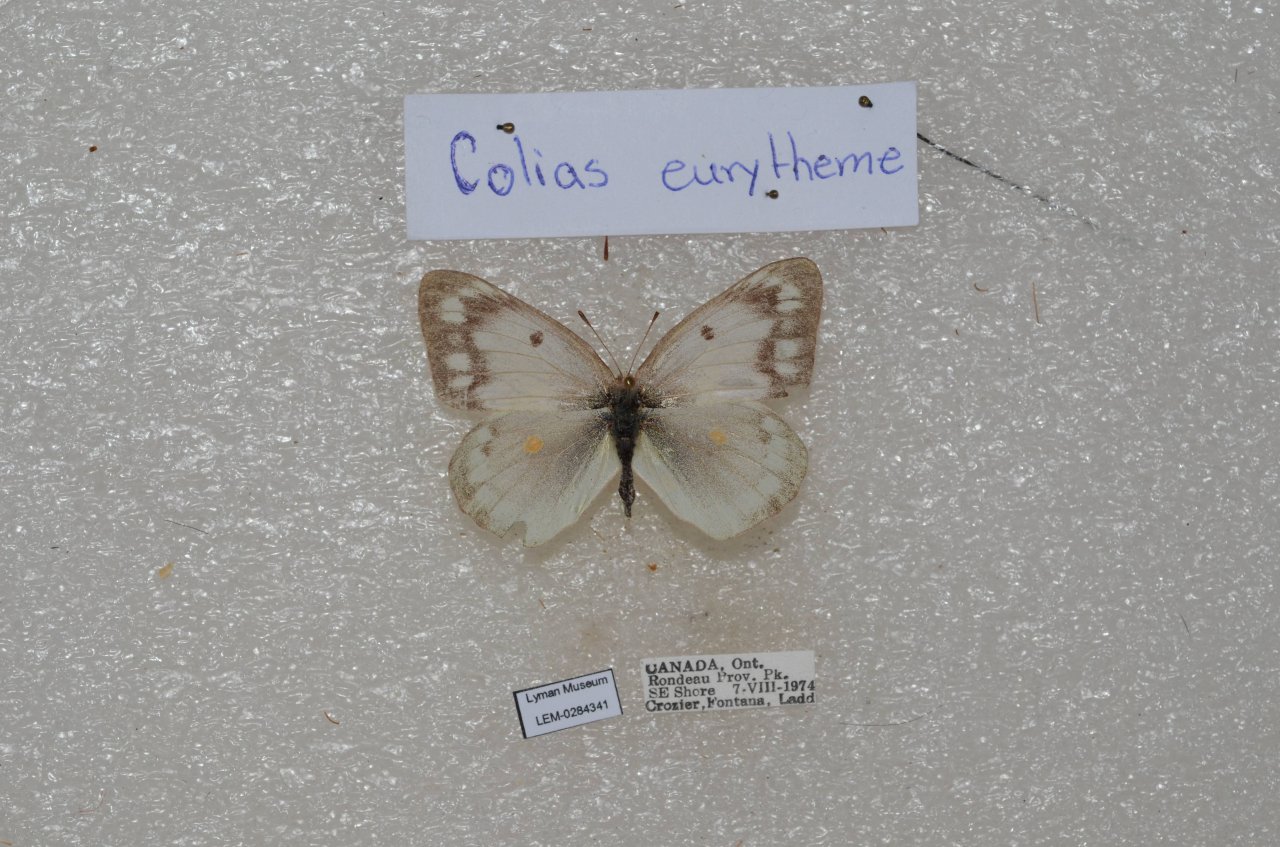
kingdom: Animalia
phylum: Arthropoda
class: Insecta
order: Lepidoptera
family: Pieridae
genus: Colias
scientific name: Colias philodice
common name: Clouded Sulphur
